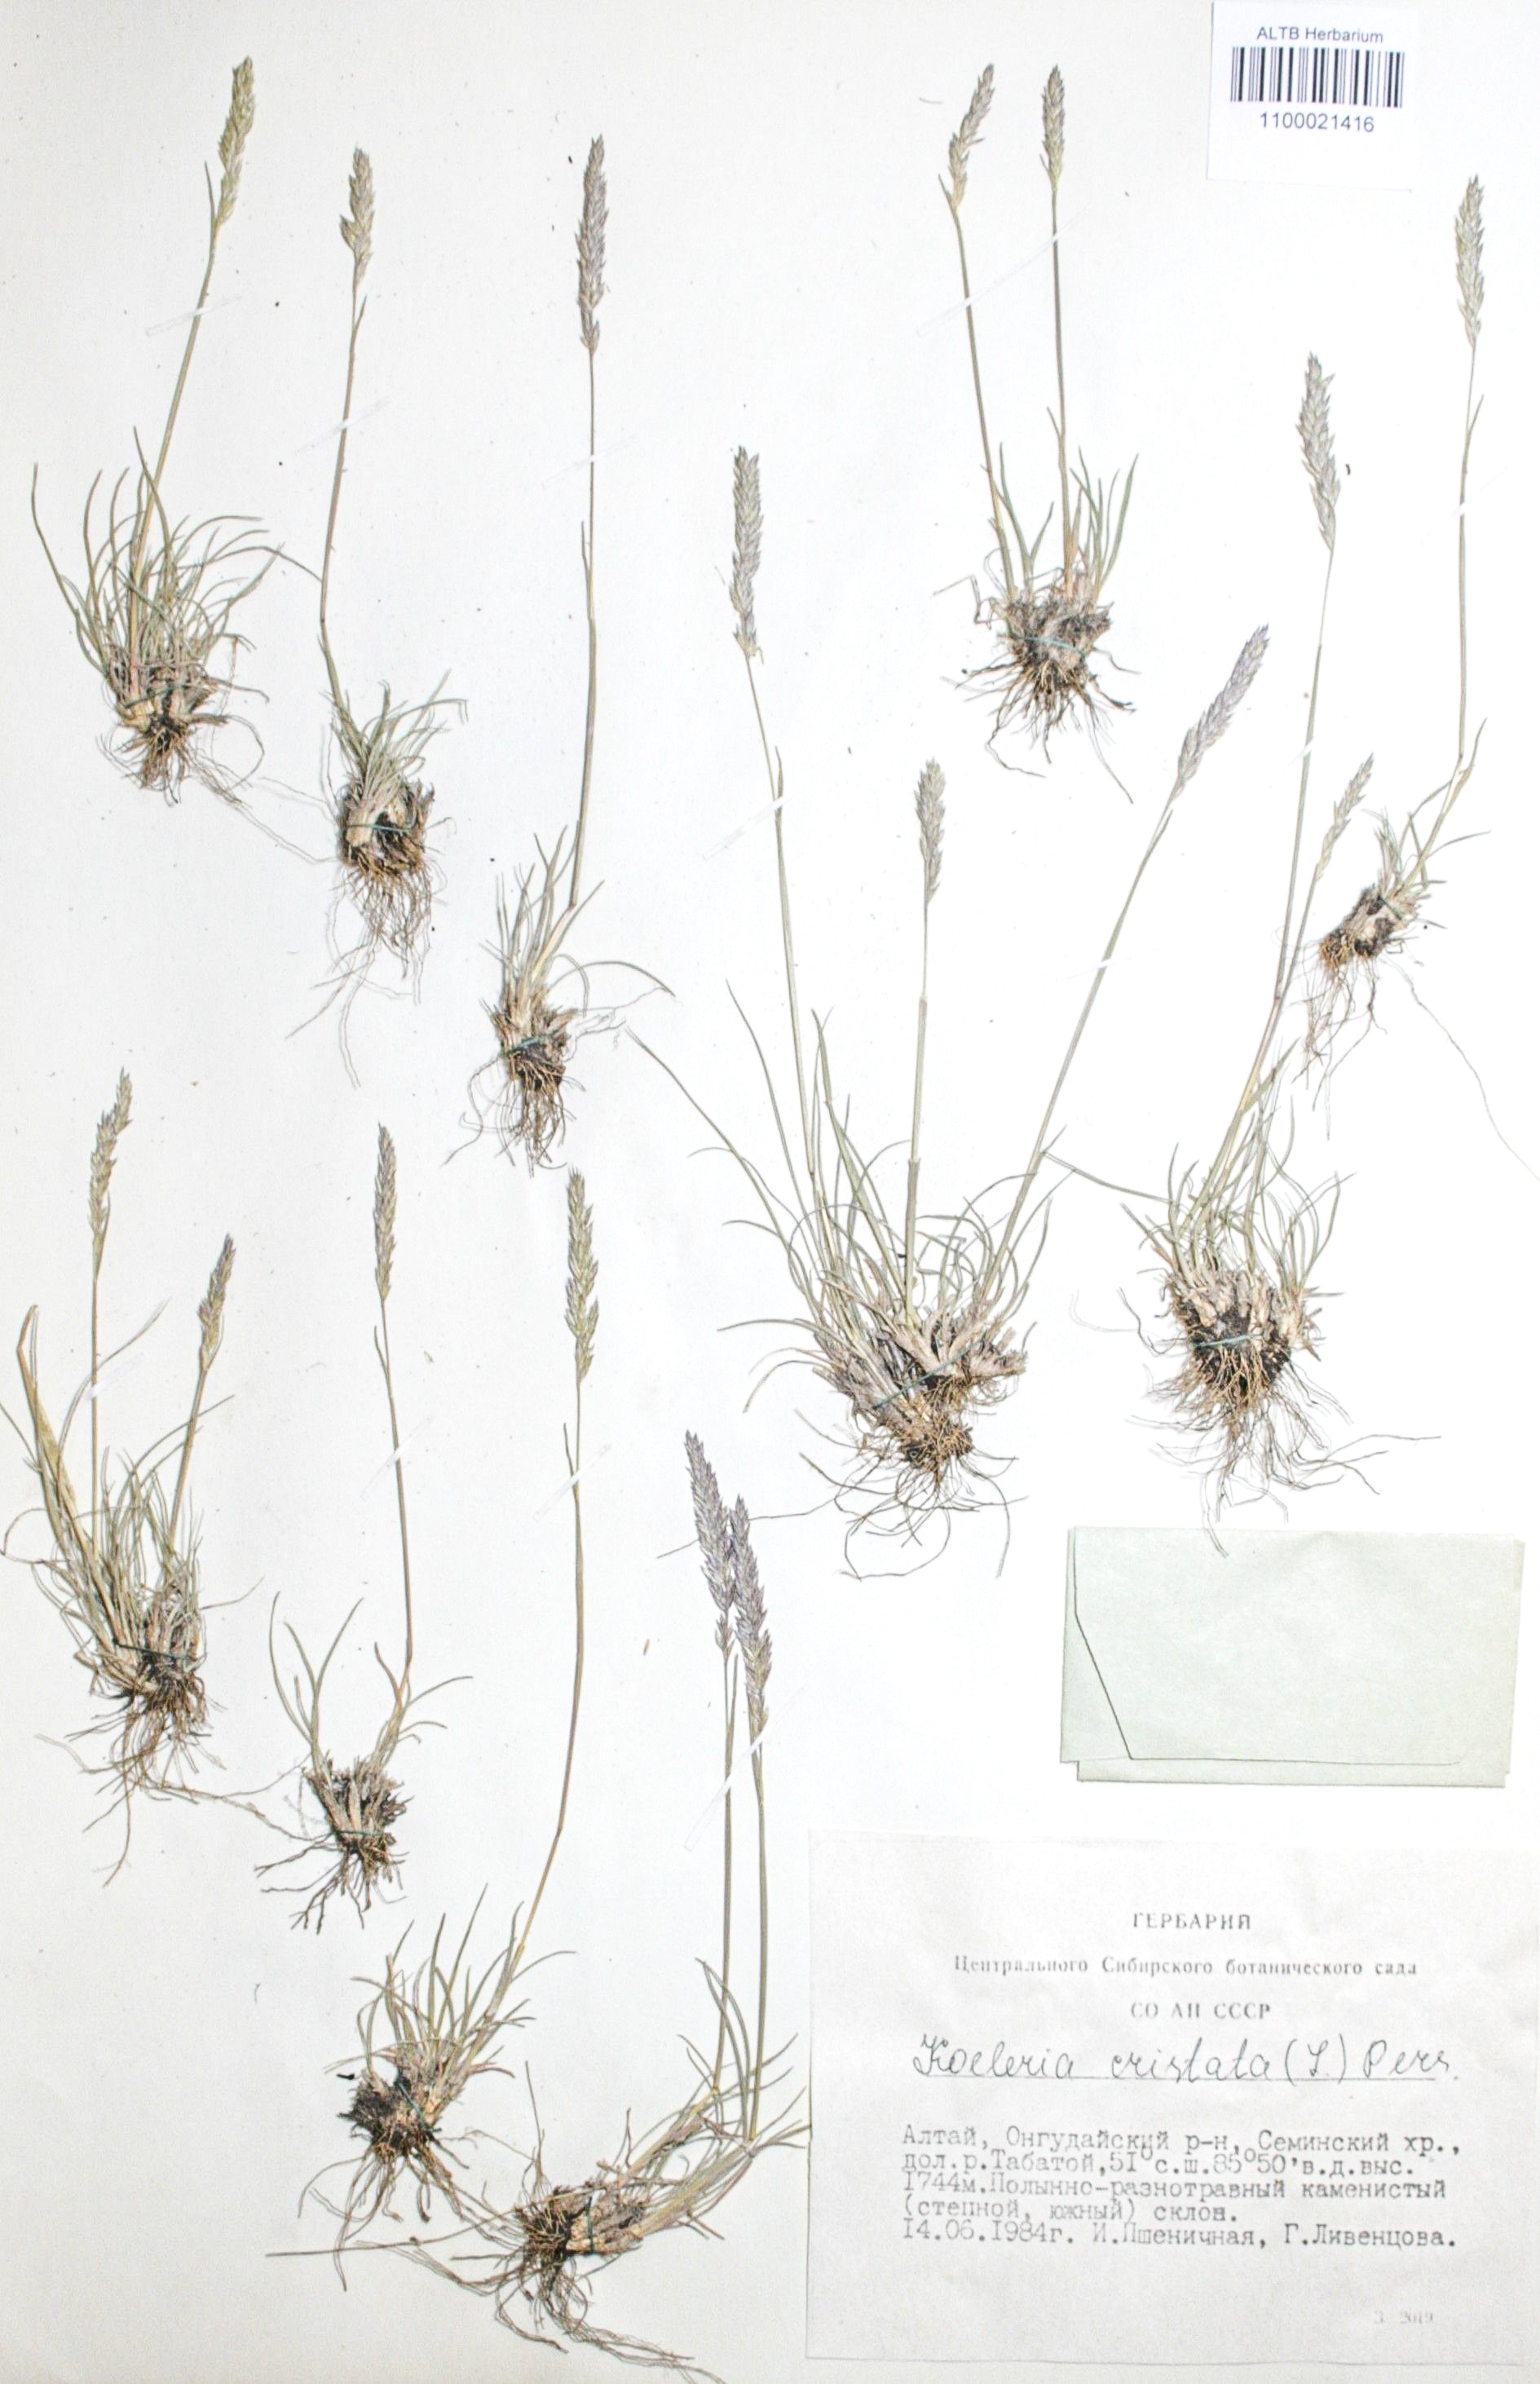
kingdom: Plantae
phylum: Tracheophyta
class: Liliopsida
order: Poales
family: Poaceae
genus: Koeleria
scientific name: Koeleria pyramidata
